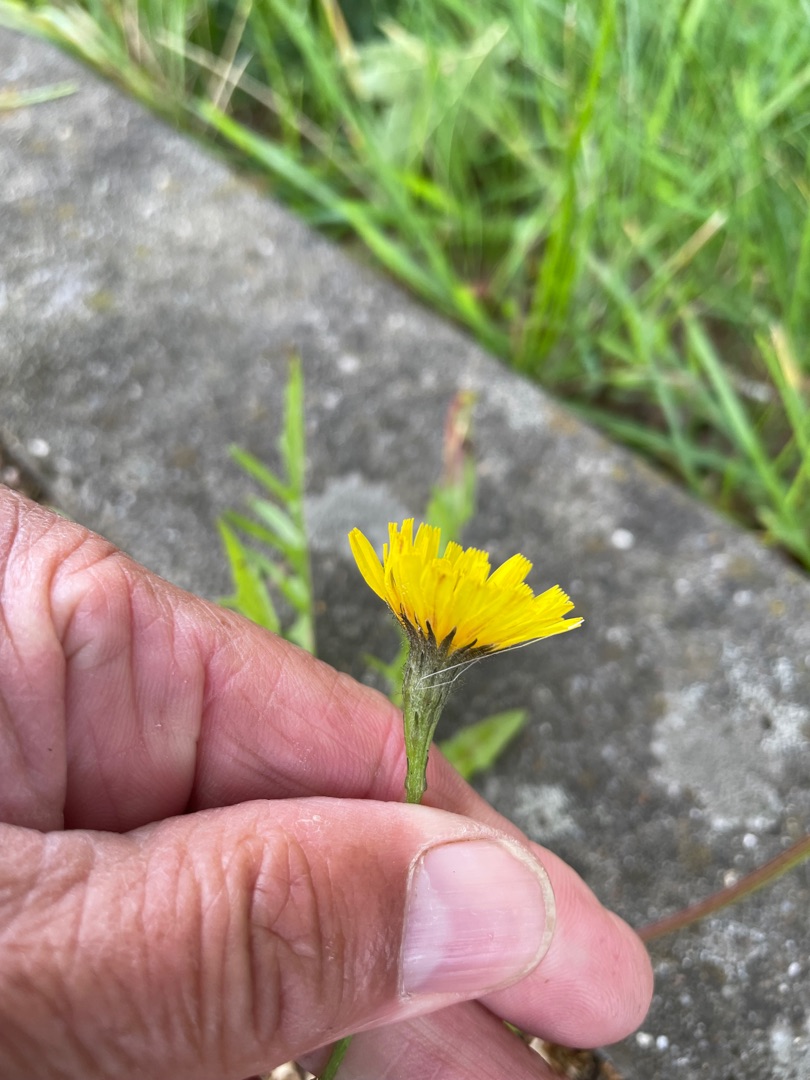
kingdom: Plantae
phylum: Tracheophyta
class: Magnoliopsida
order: Asterales
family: Asteraceae
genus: Scorzoneroides
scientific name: Scorzoneroides autumnalis
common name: Høst-borst
